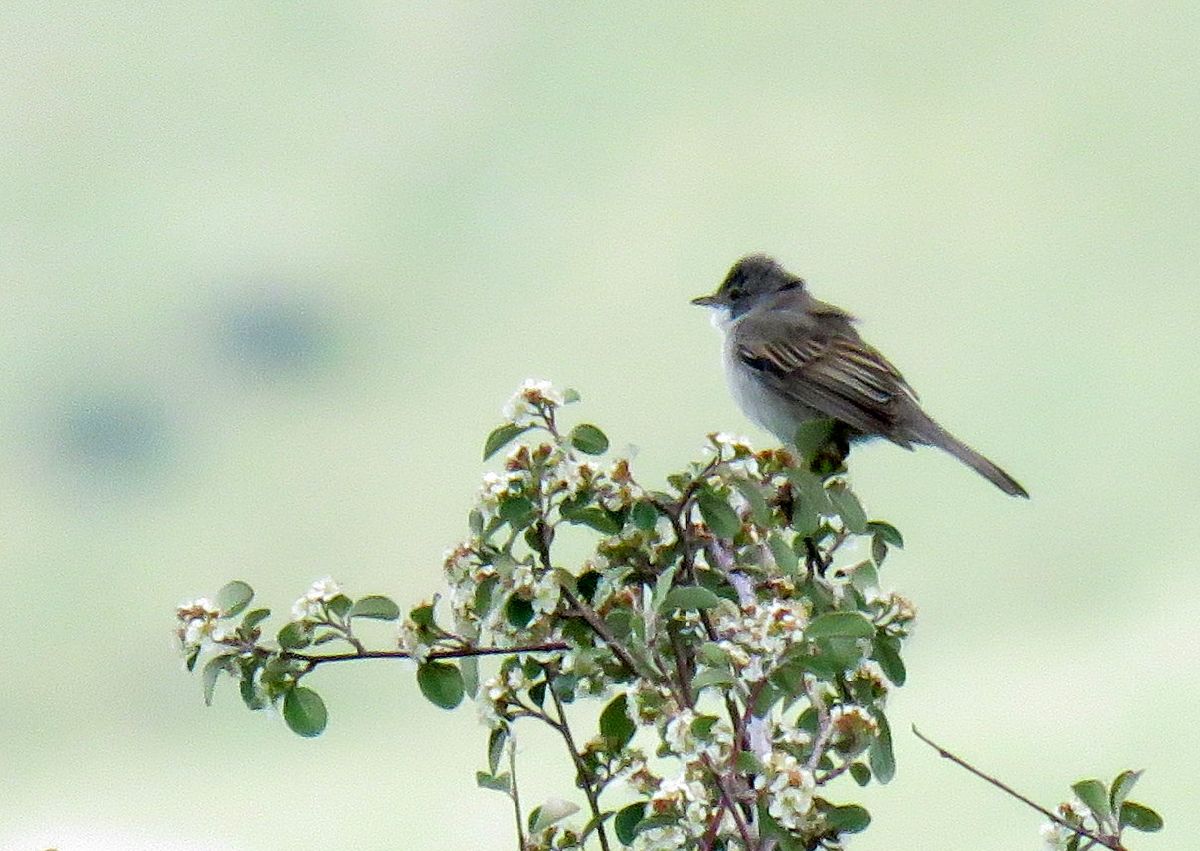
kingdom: Animalia
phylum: Chordata
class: Aves
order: Passeriformes
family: Sylviidae
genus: Sylvia
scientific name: Sylvia communis
